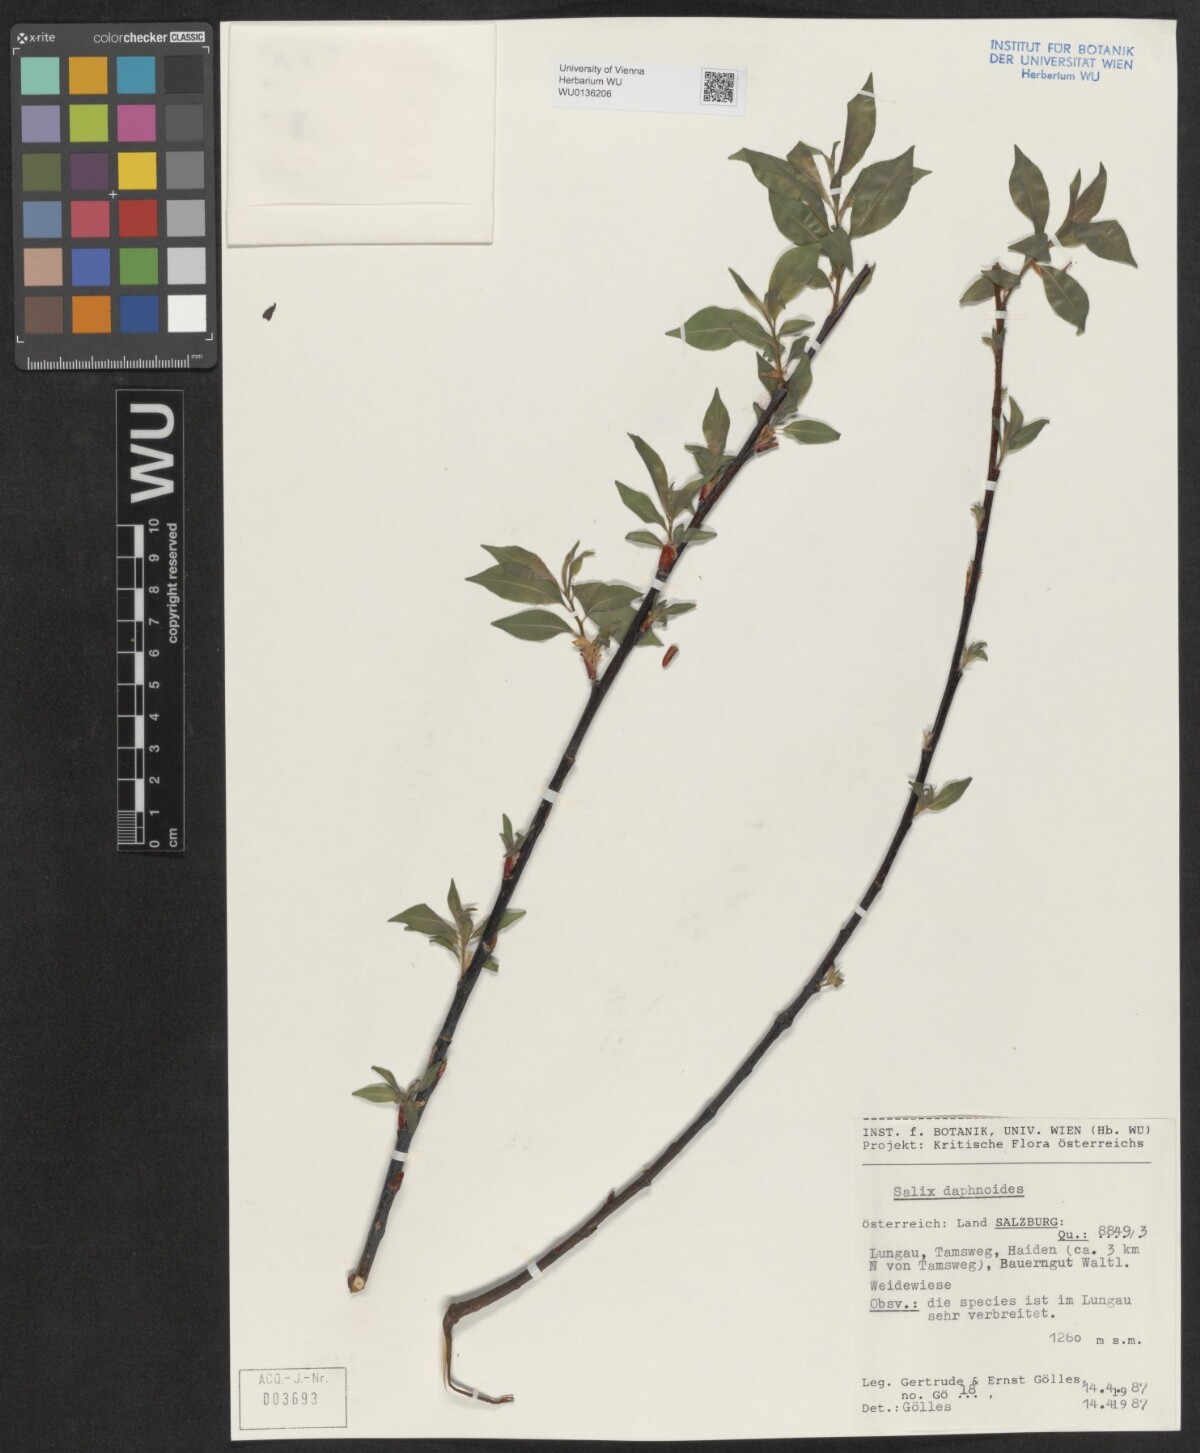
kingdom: Plantae
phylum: Tracheophyta
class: Magnoliopsida
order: Malpighiales
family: Salicaceae
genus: Salix
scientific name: Salix daphnoides
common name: European violet-willow
